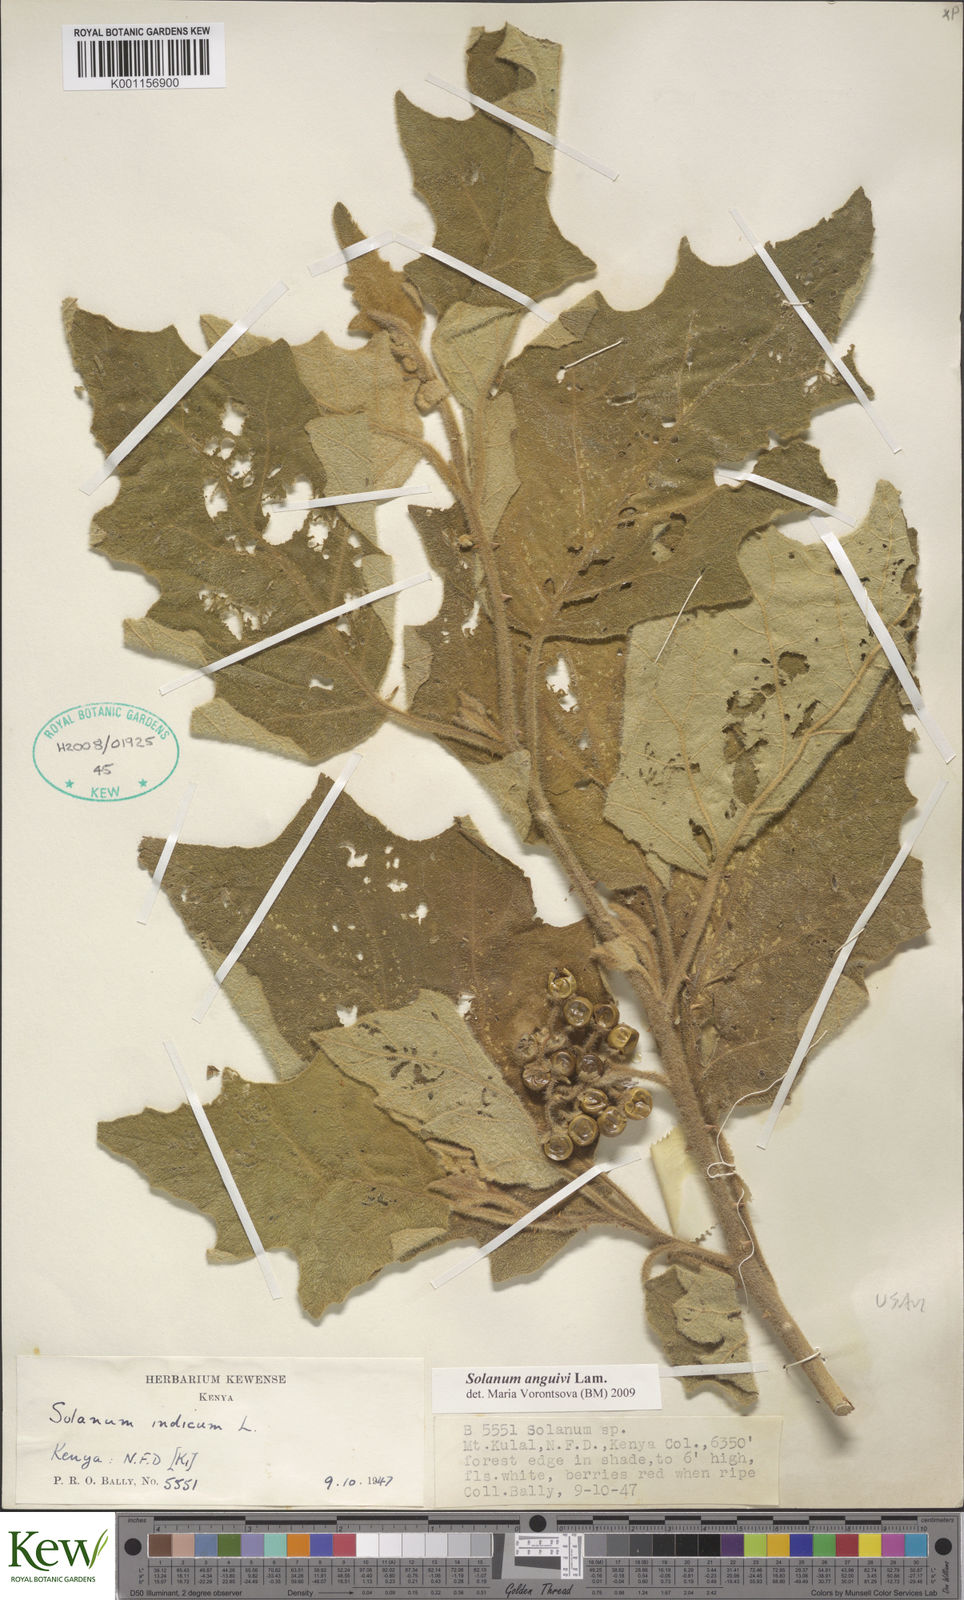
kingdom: Plantae
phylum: Tracheophyta
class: Magnoliopsida
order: Solanales
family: Solanaceae
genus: Solanum
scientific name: Solanum anguivi
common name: Forest bitterberry
